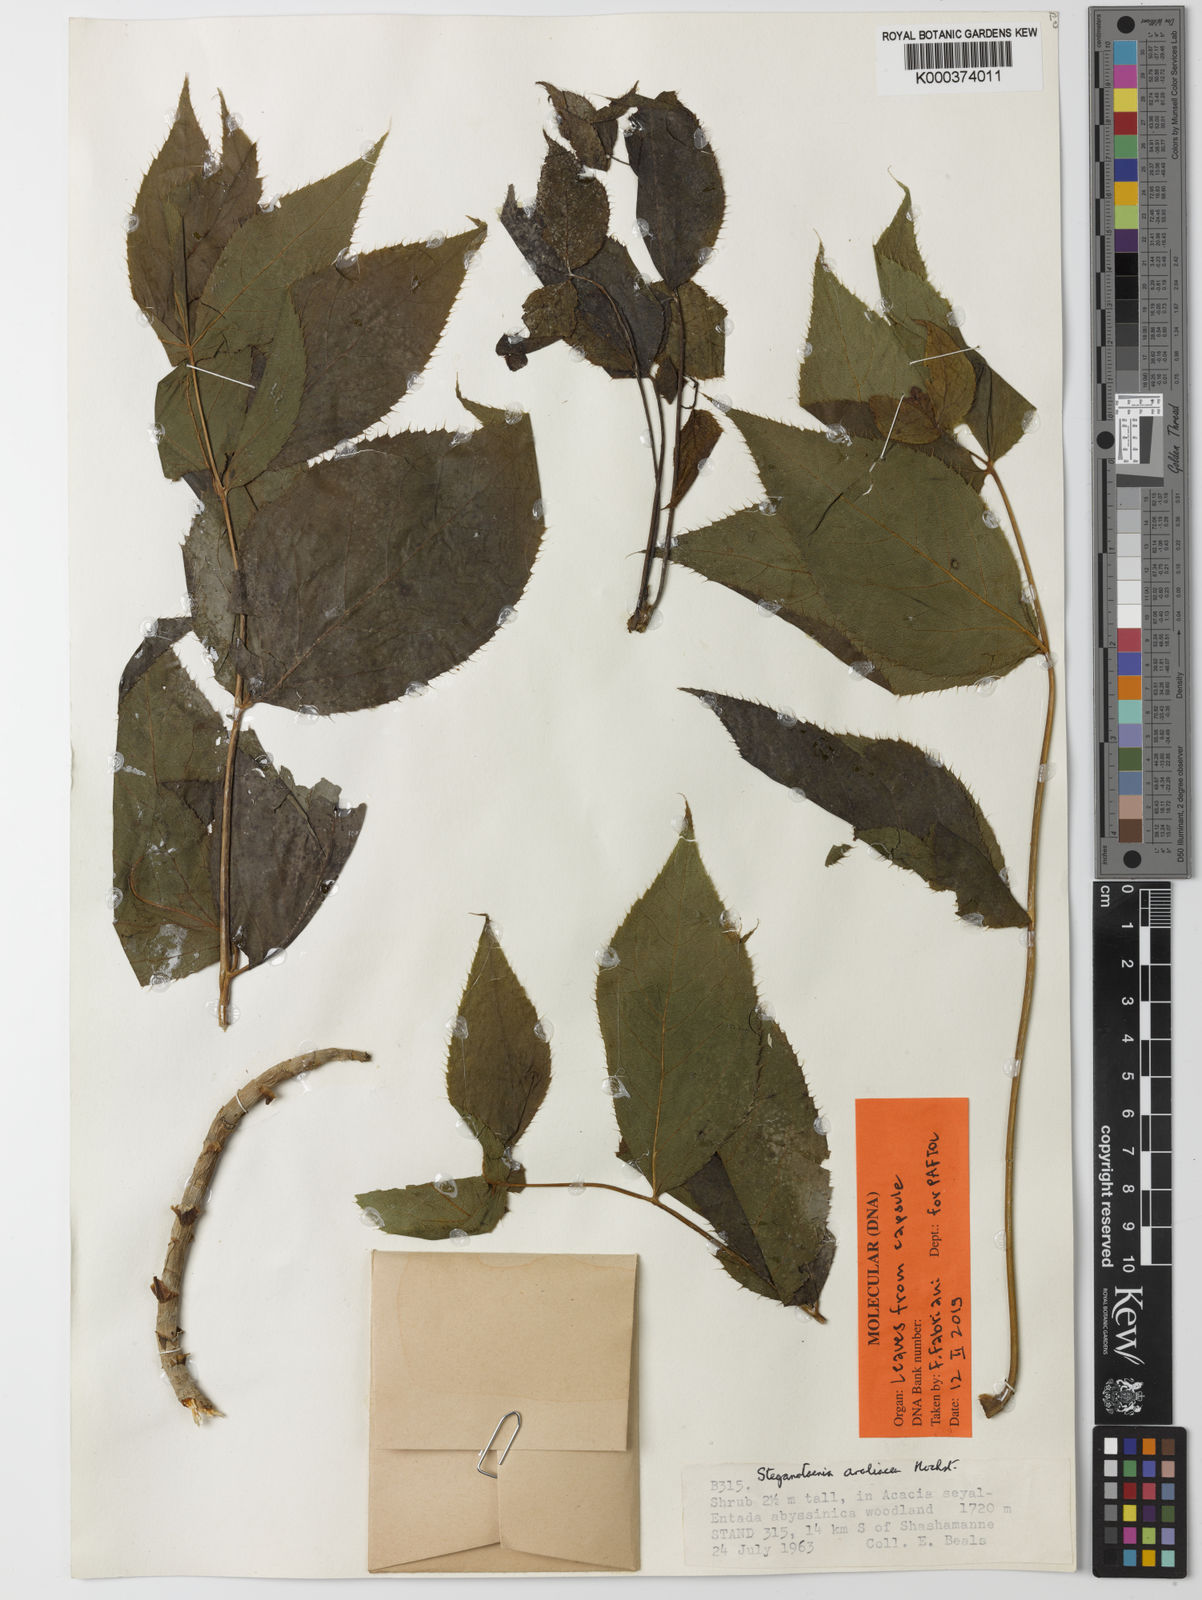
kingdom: Plantae
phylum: Tracheophyta
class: Magnoliopsida
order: Apiales
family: Apiaceae
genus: Steganotaenia
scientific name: Steganotaenia araliacea
